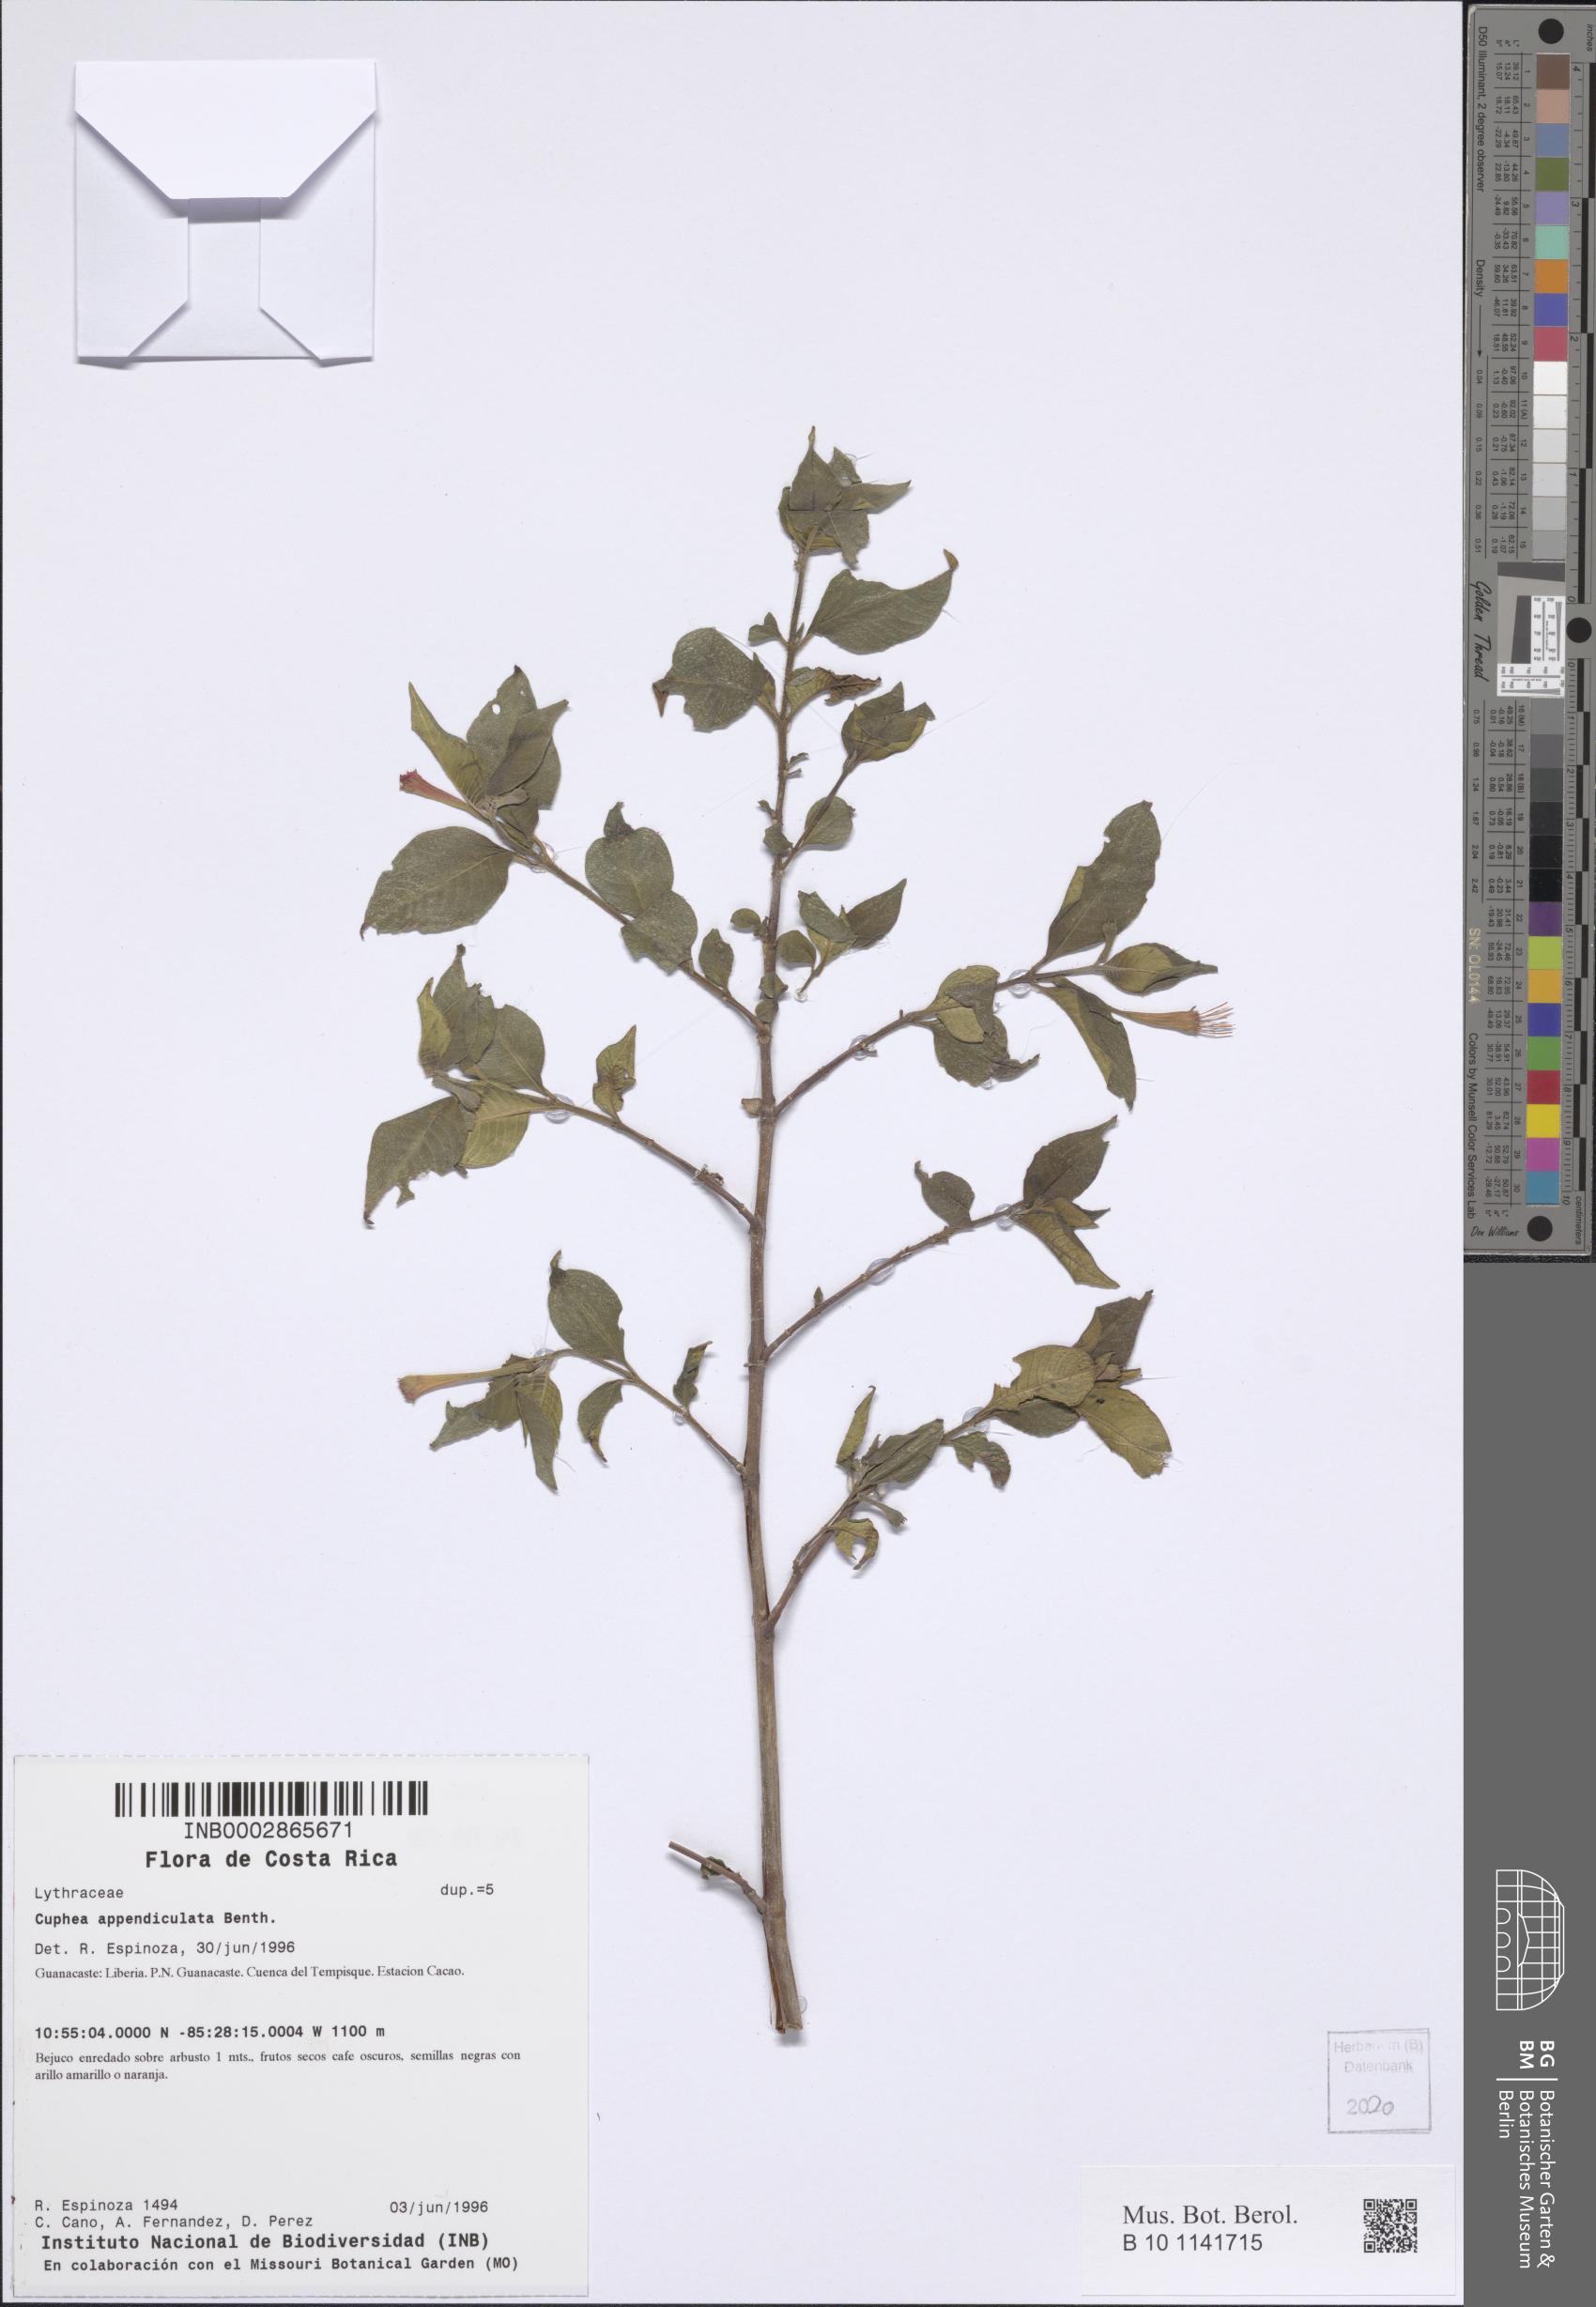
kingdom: Plantae
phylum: Tracheophyta
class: Magnoliopsida
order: Myrtales
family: Lythraceae
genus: Cuphea
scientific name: Cuphea appendiculata
